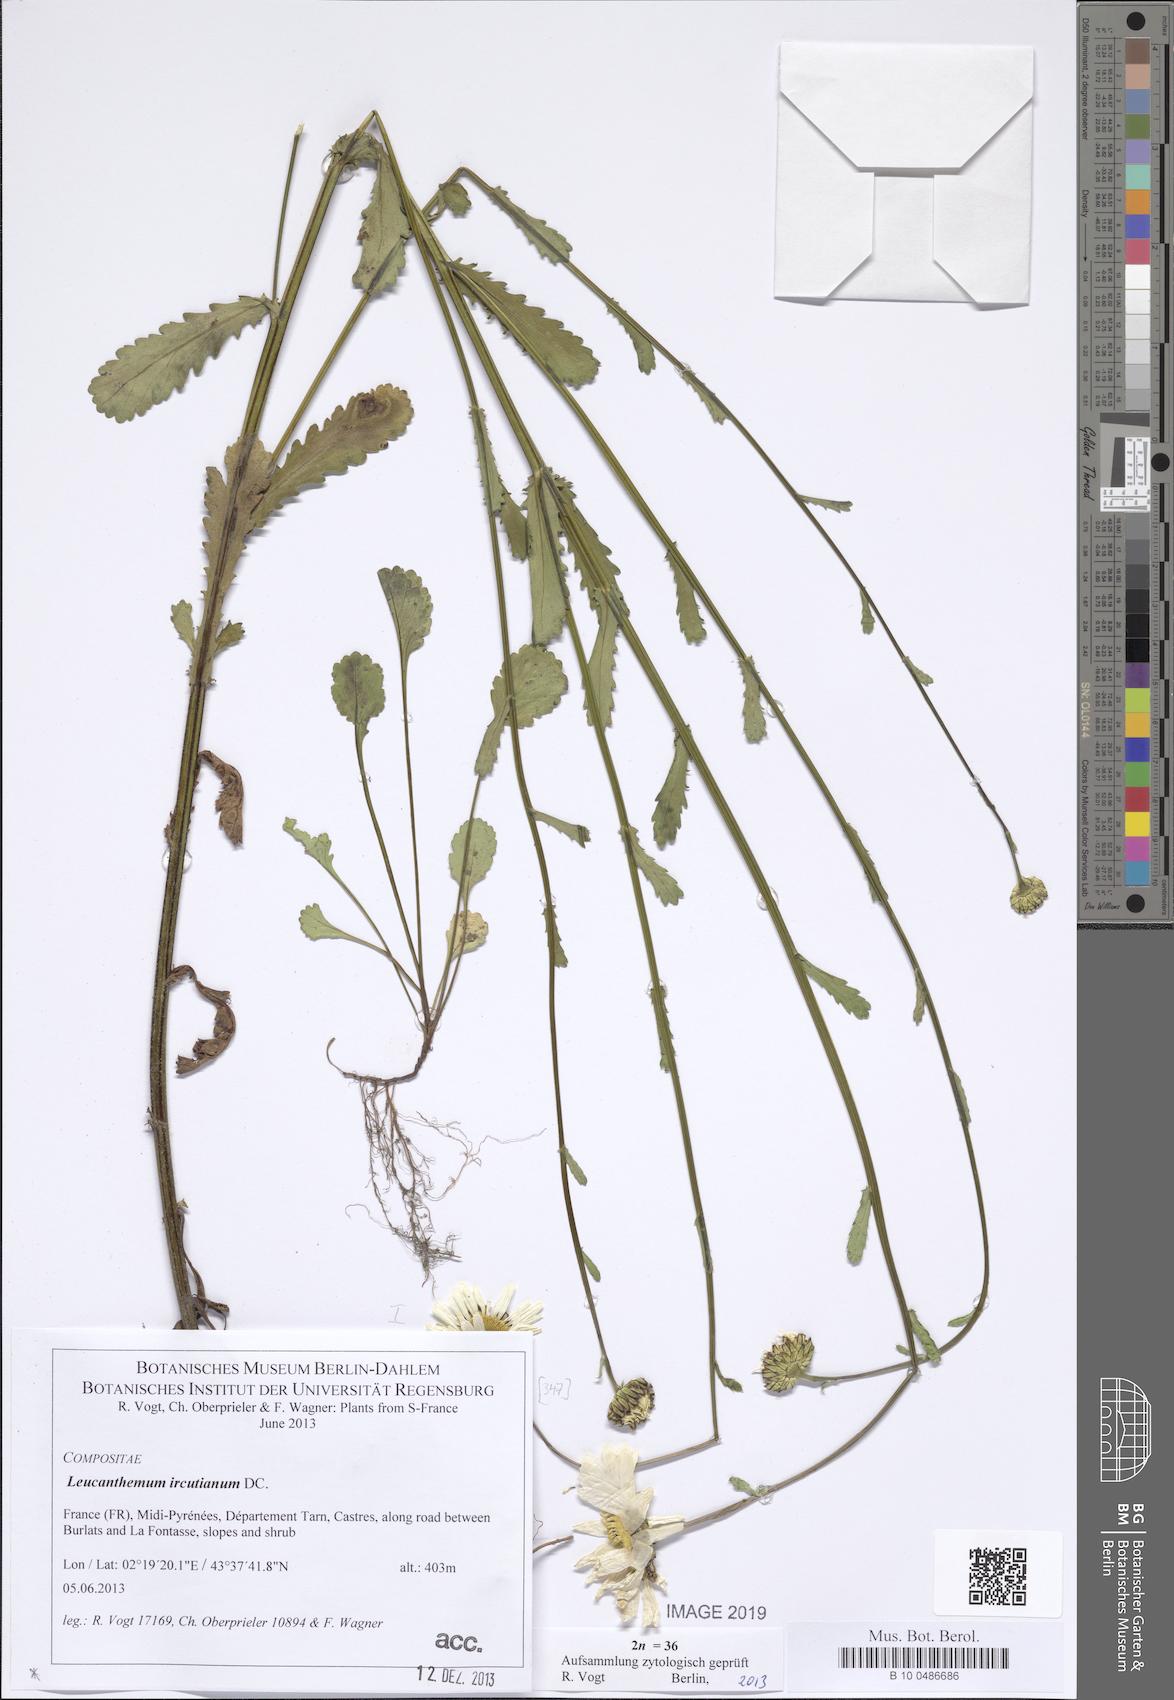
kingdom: Plantae
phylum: Tracheophyta
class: Magnoliopsida
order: Asterales
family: Asteraceae
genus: Leucanthemum
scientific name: Leucanthemum ircutianum
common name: Daisy
